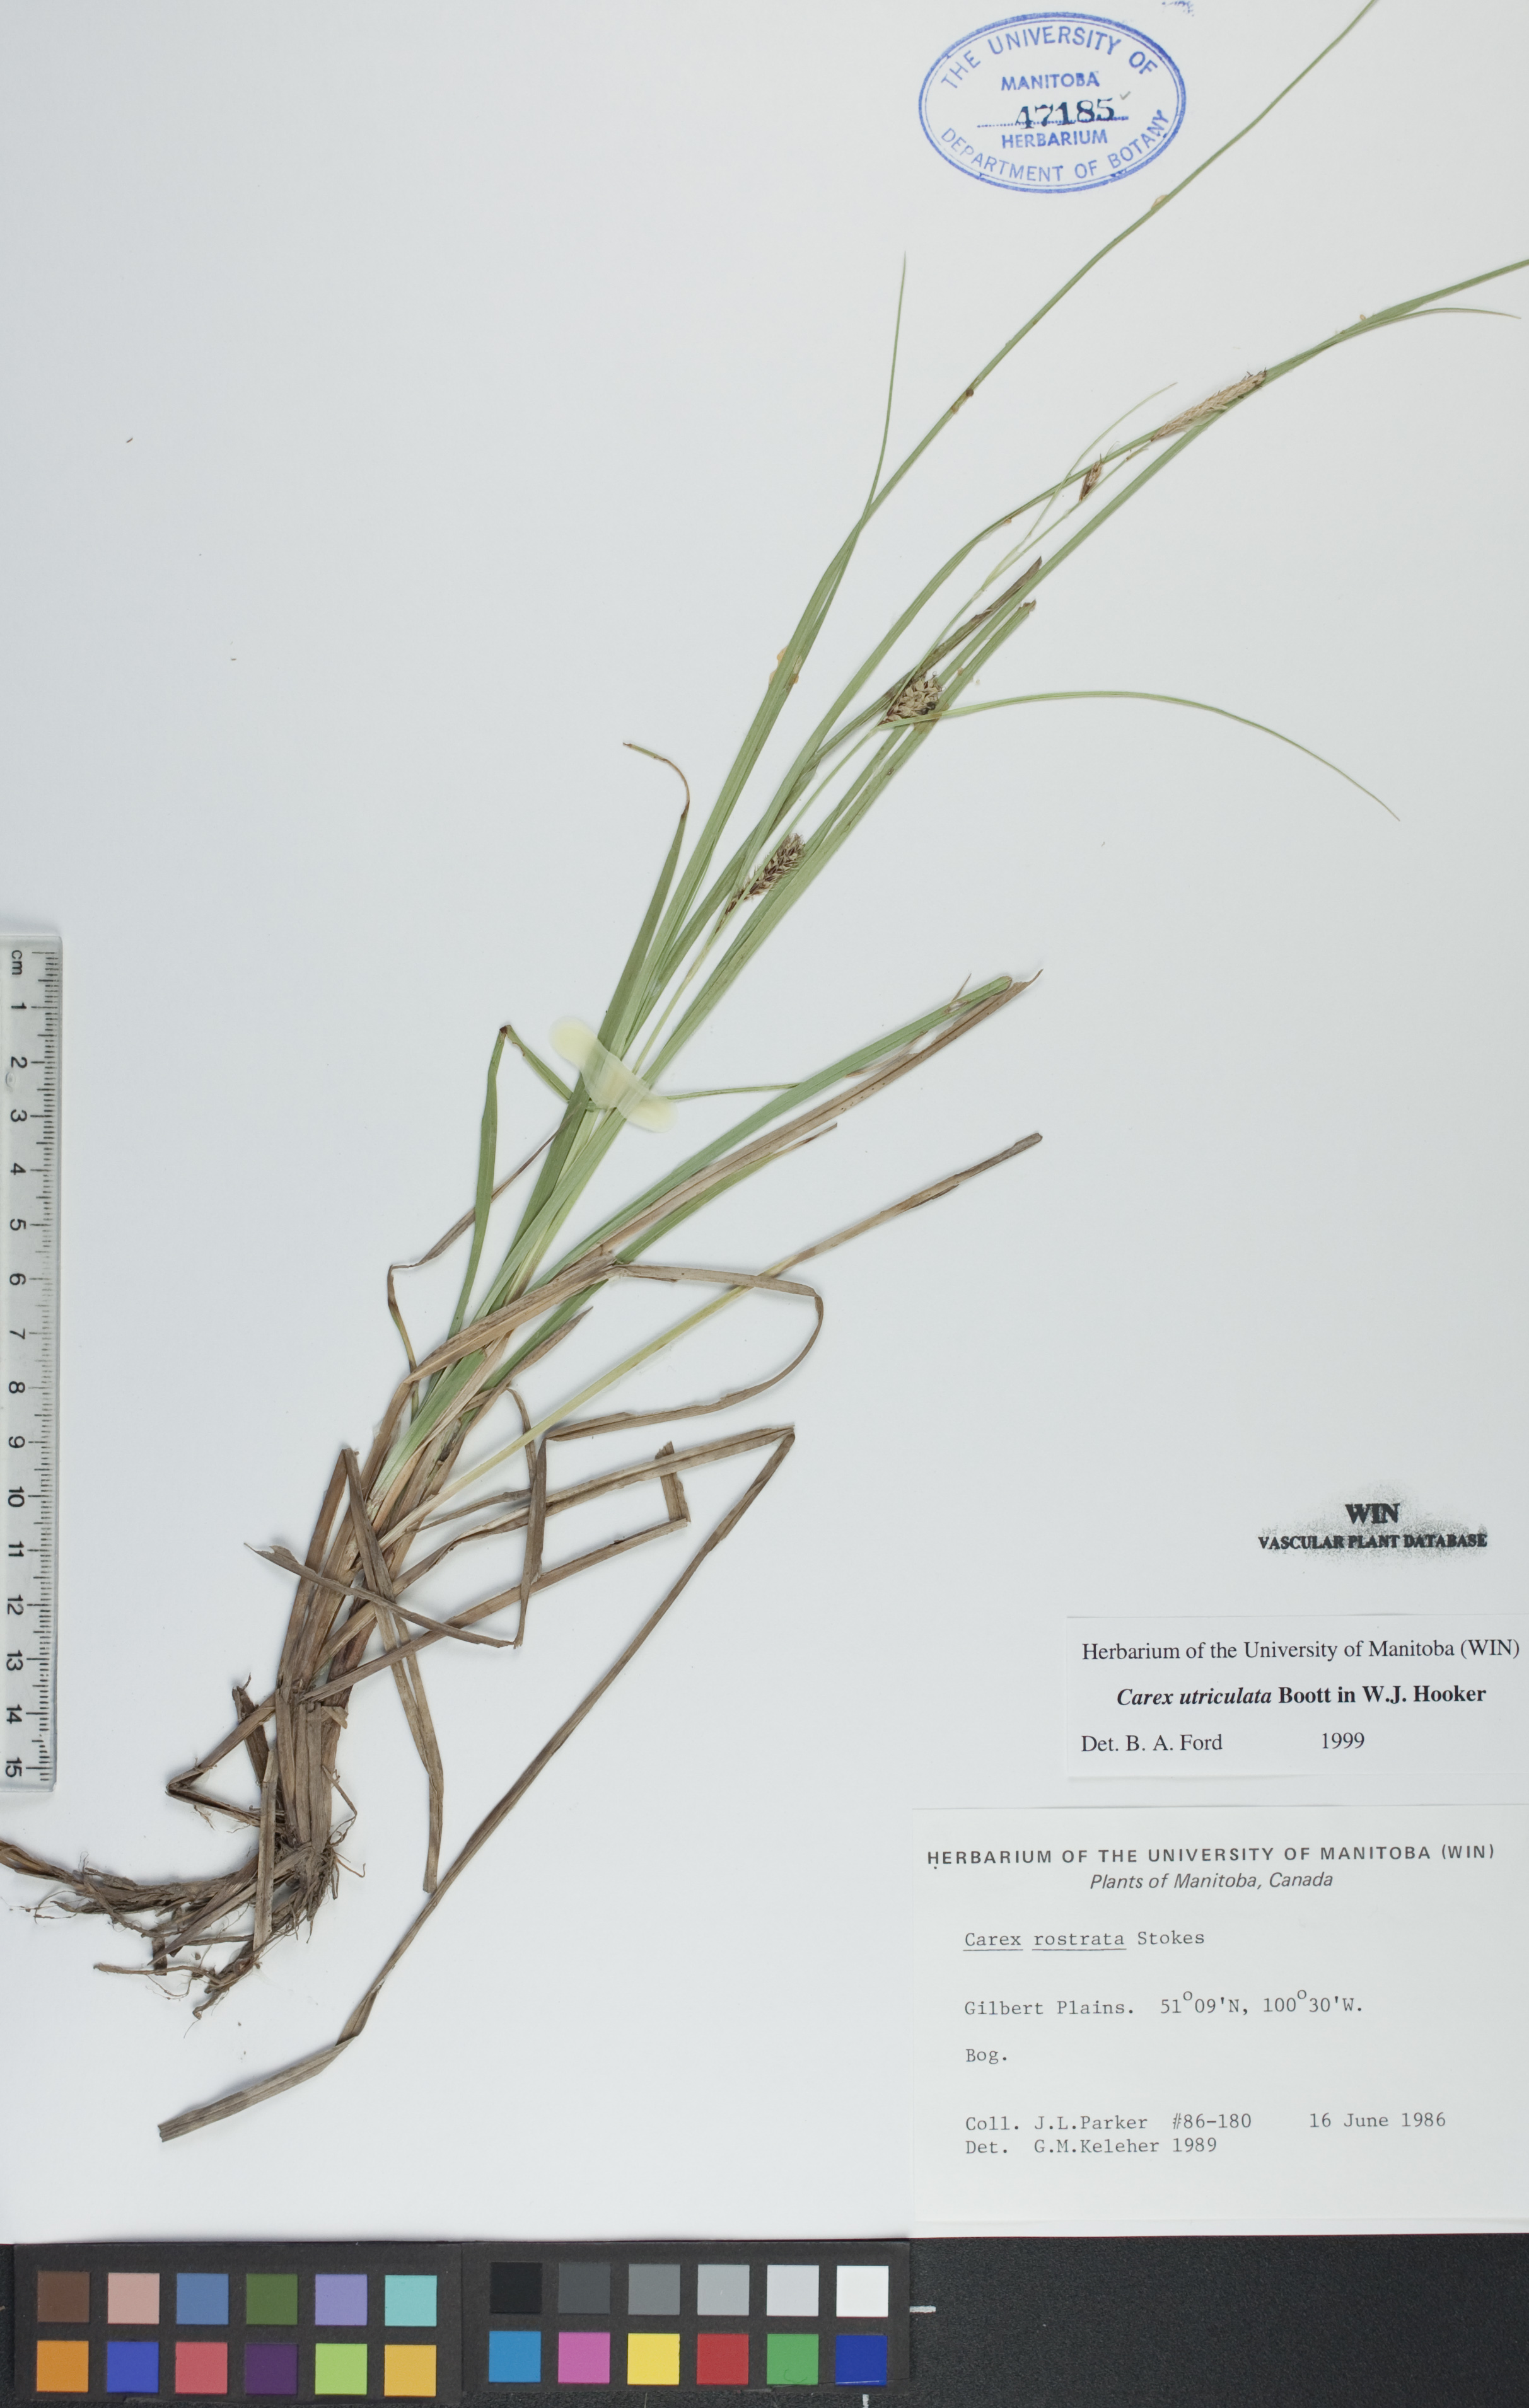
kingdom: Plantae
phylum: Tracheophyta
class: Liliopsida
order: Poales
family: Cyperaceae
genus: Carex
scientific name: Carex utriculata
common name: Beaked sedge
